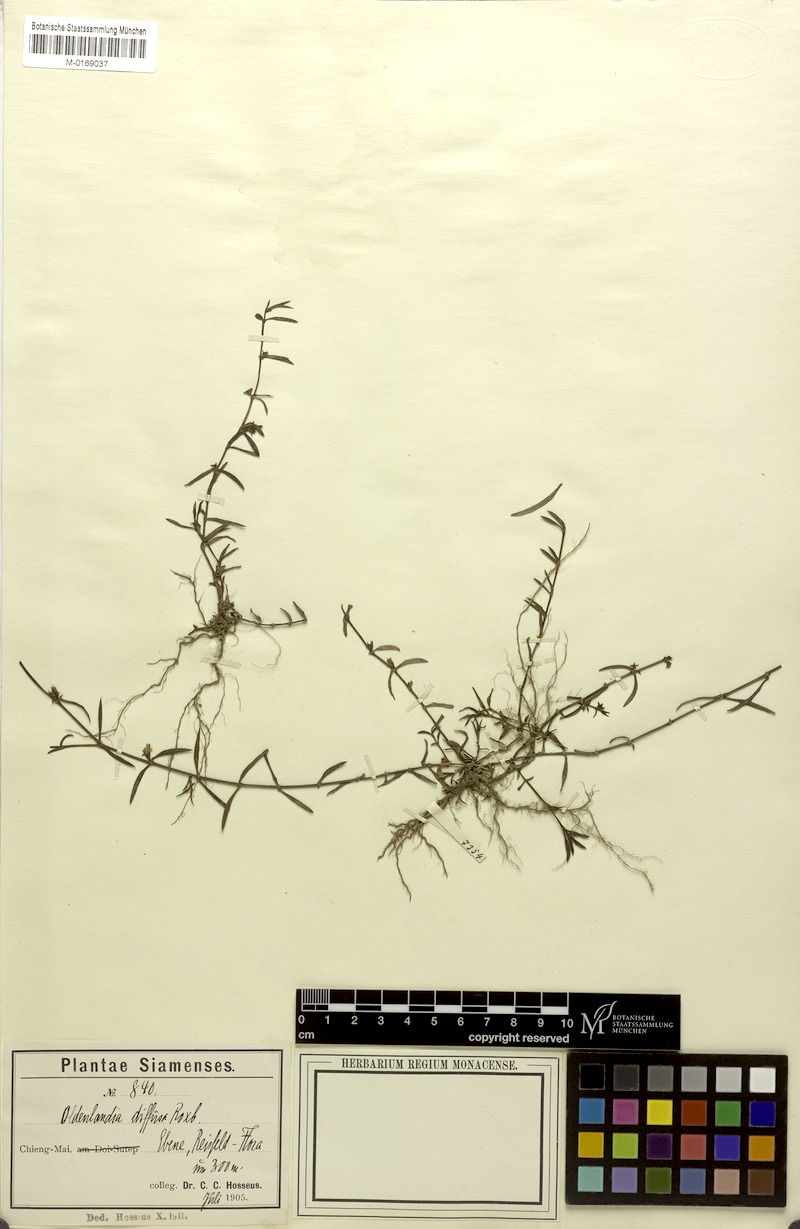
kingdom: Plantae
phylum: Tracheophyta
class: Magnoliopsida
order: Gentianales
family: Rubiaceae
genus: Scleromitrion
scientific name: Scleromitrion diffusum
